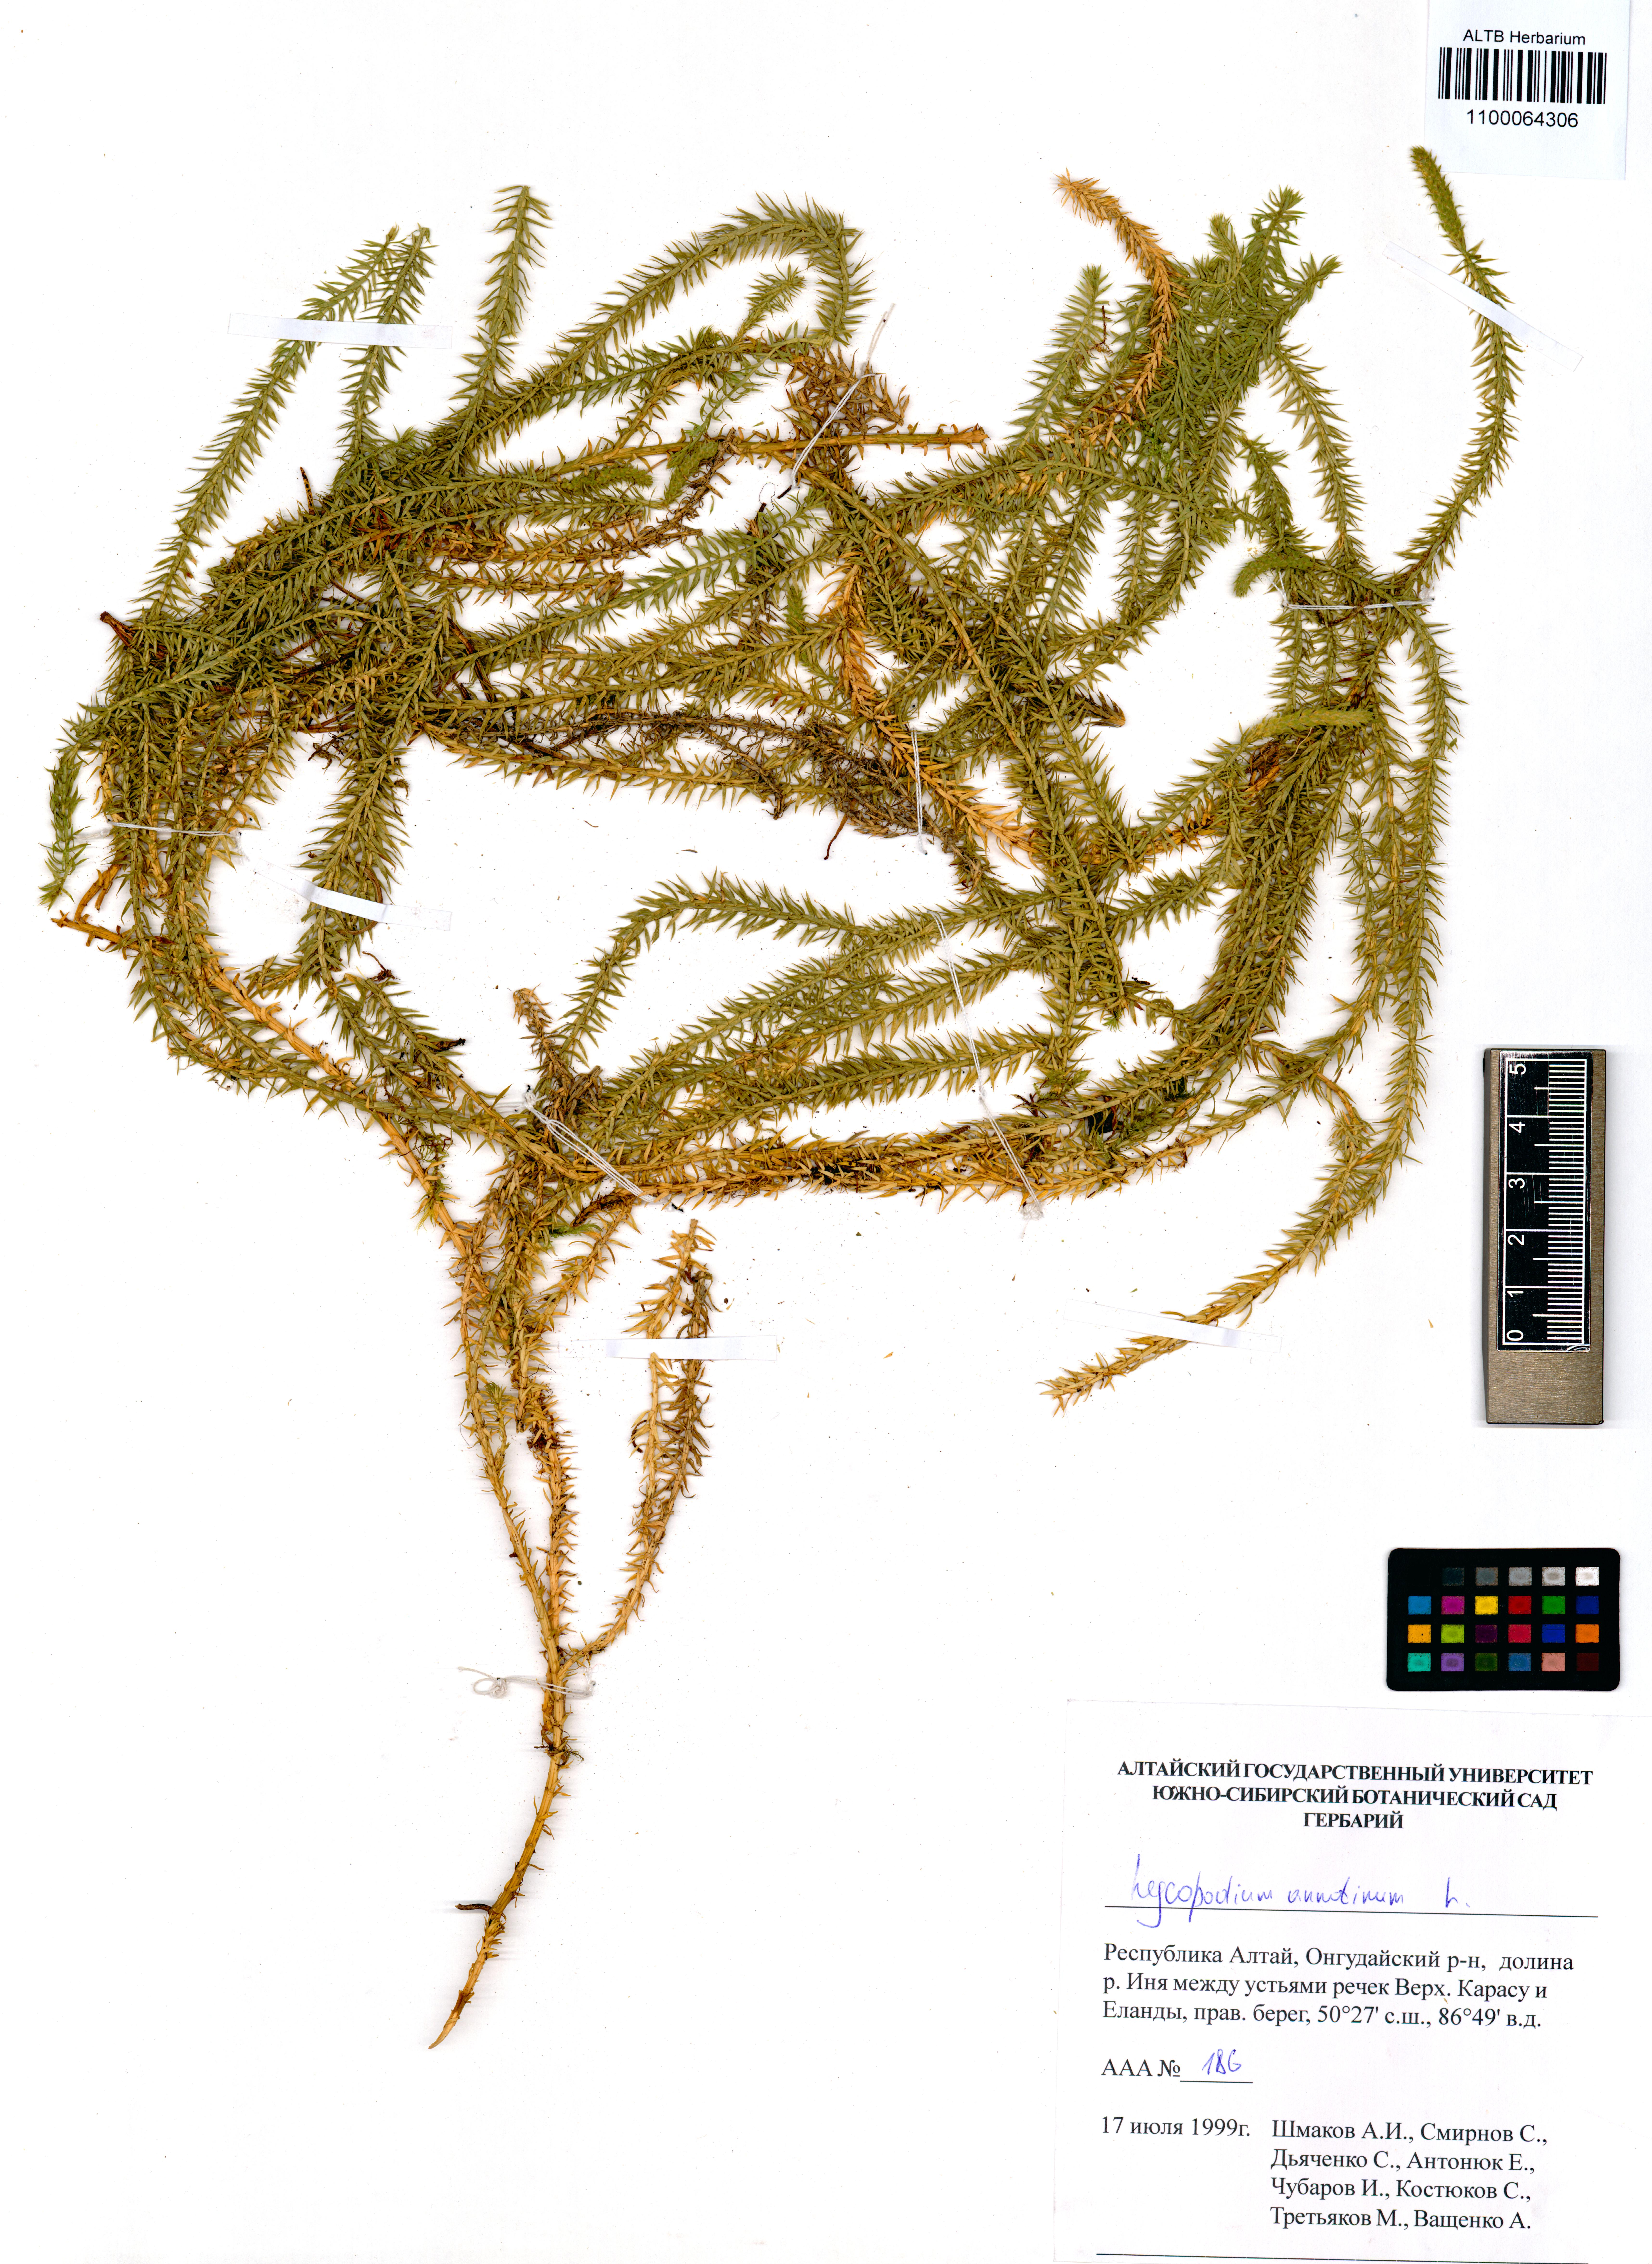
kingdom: Plantae
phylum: Tracheophyta
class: Lycopodiopsida
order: Lycopodiales
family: Lycopodiaceae
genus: Spinulum
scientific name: Spinulum annotinum
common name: Interrupted club-moss
